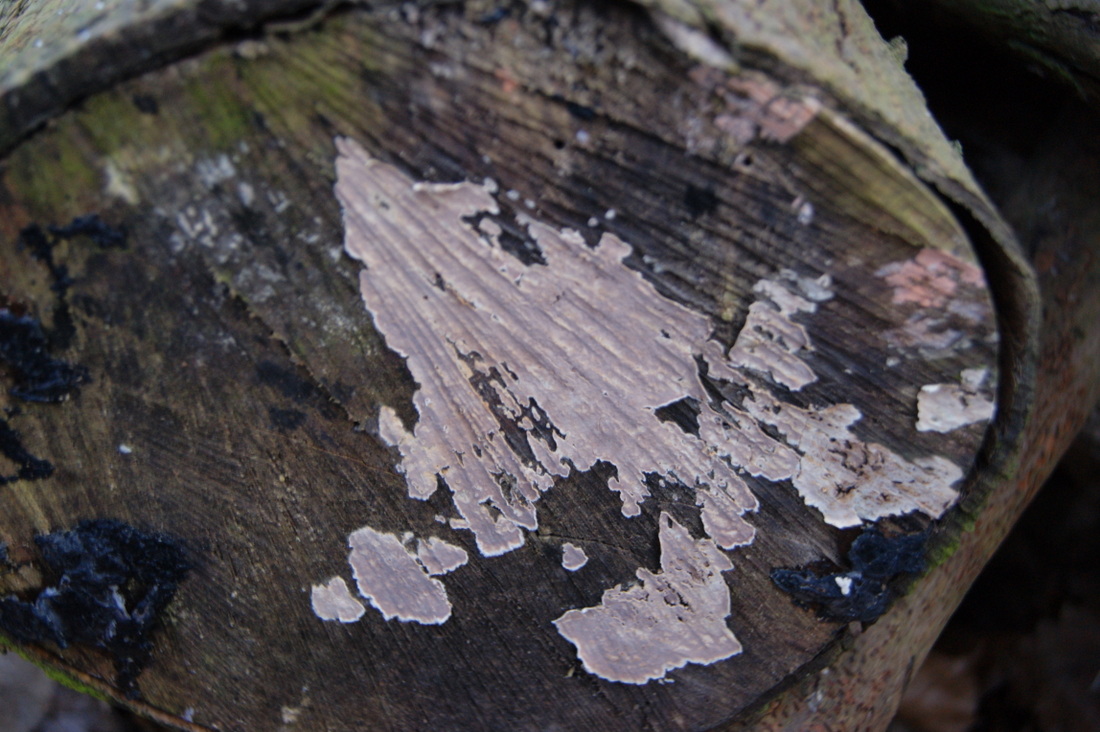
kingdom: Fungi
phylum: Basidiomycota
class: Agaricomycetes
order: Agaricales
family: Physalacriaceae
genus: Cylindrobasidium
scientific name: Cylindrobasidium evolvens
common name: sprækkehinde
